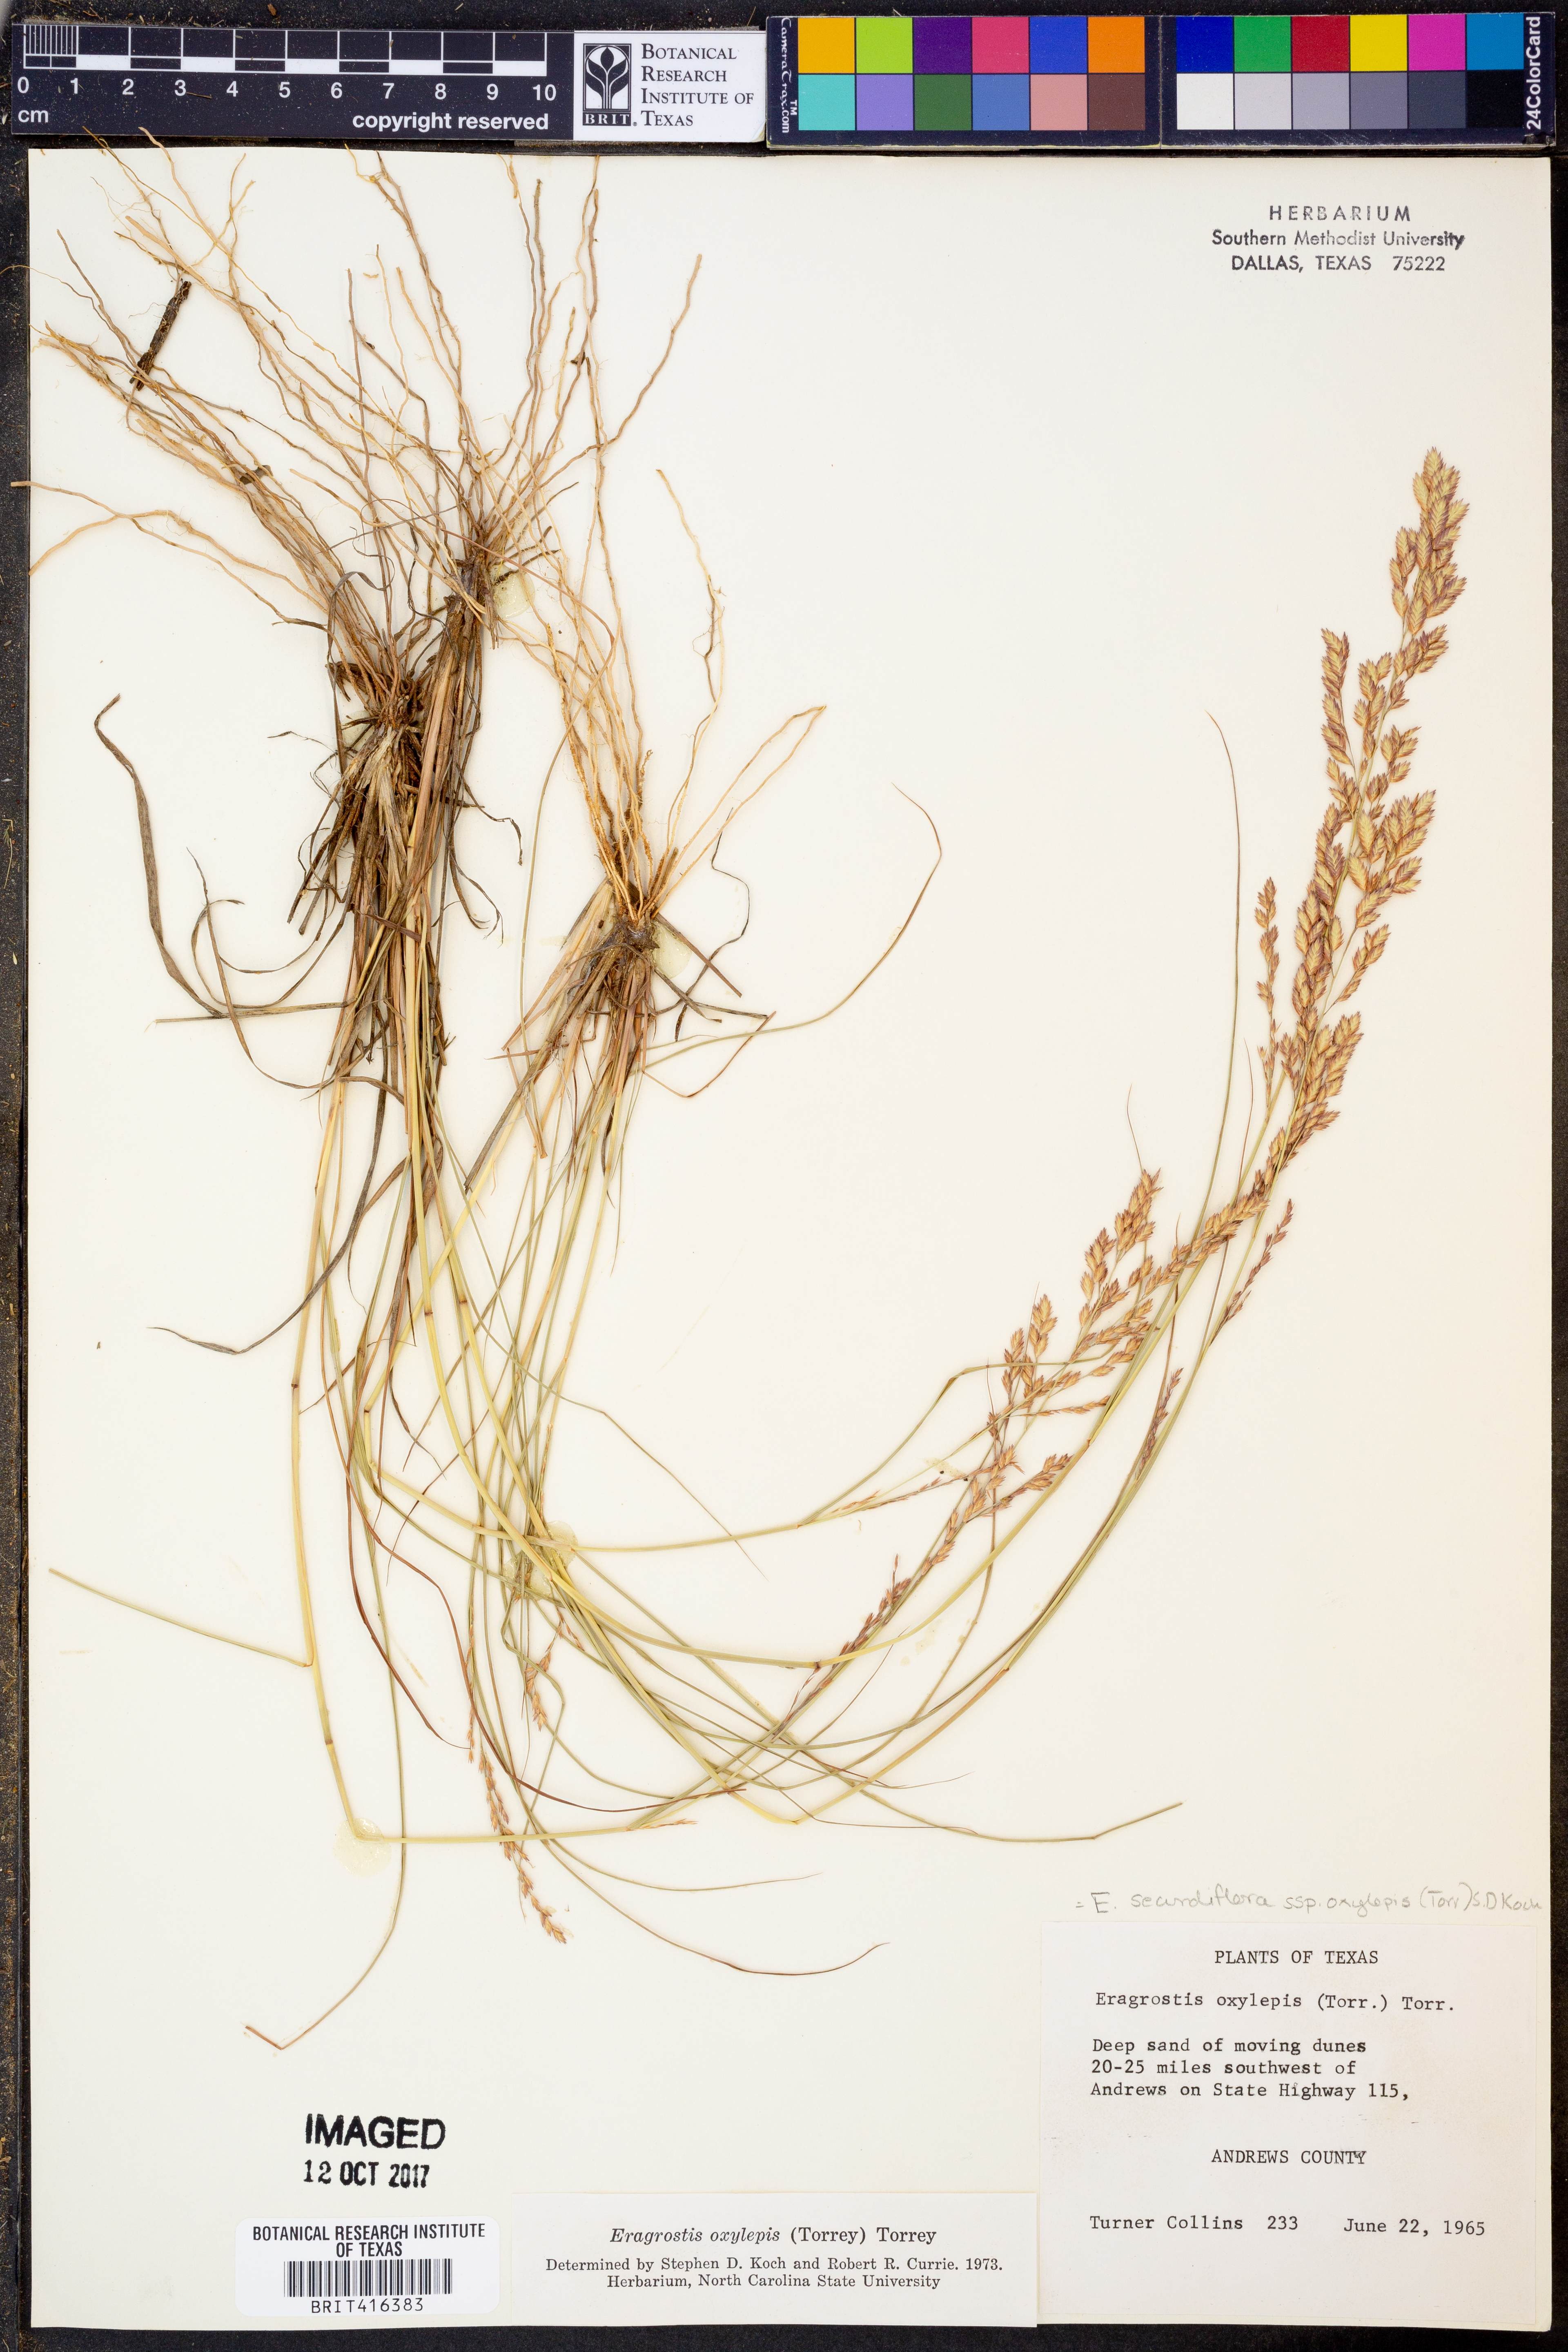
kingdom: Plantae
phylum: Tracheophyta
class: Liliopsida
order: Poales
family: Poaceae
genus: Eragrostis
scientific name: Eragrostis secundiflora
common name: Red love grass
